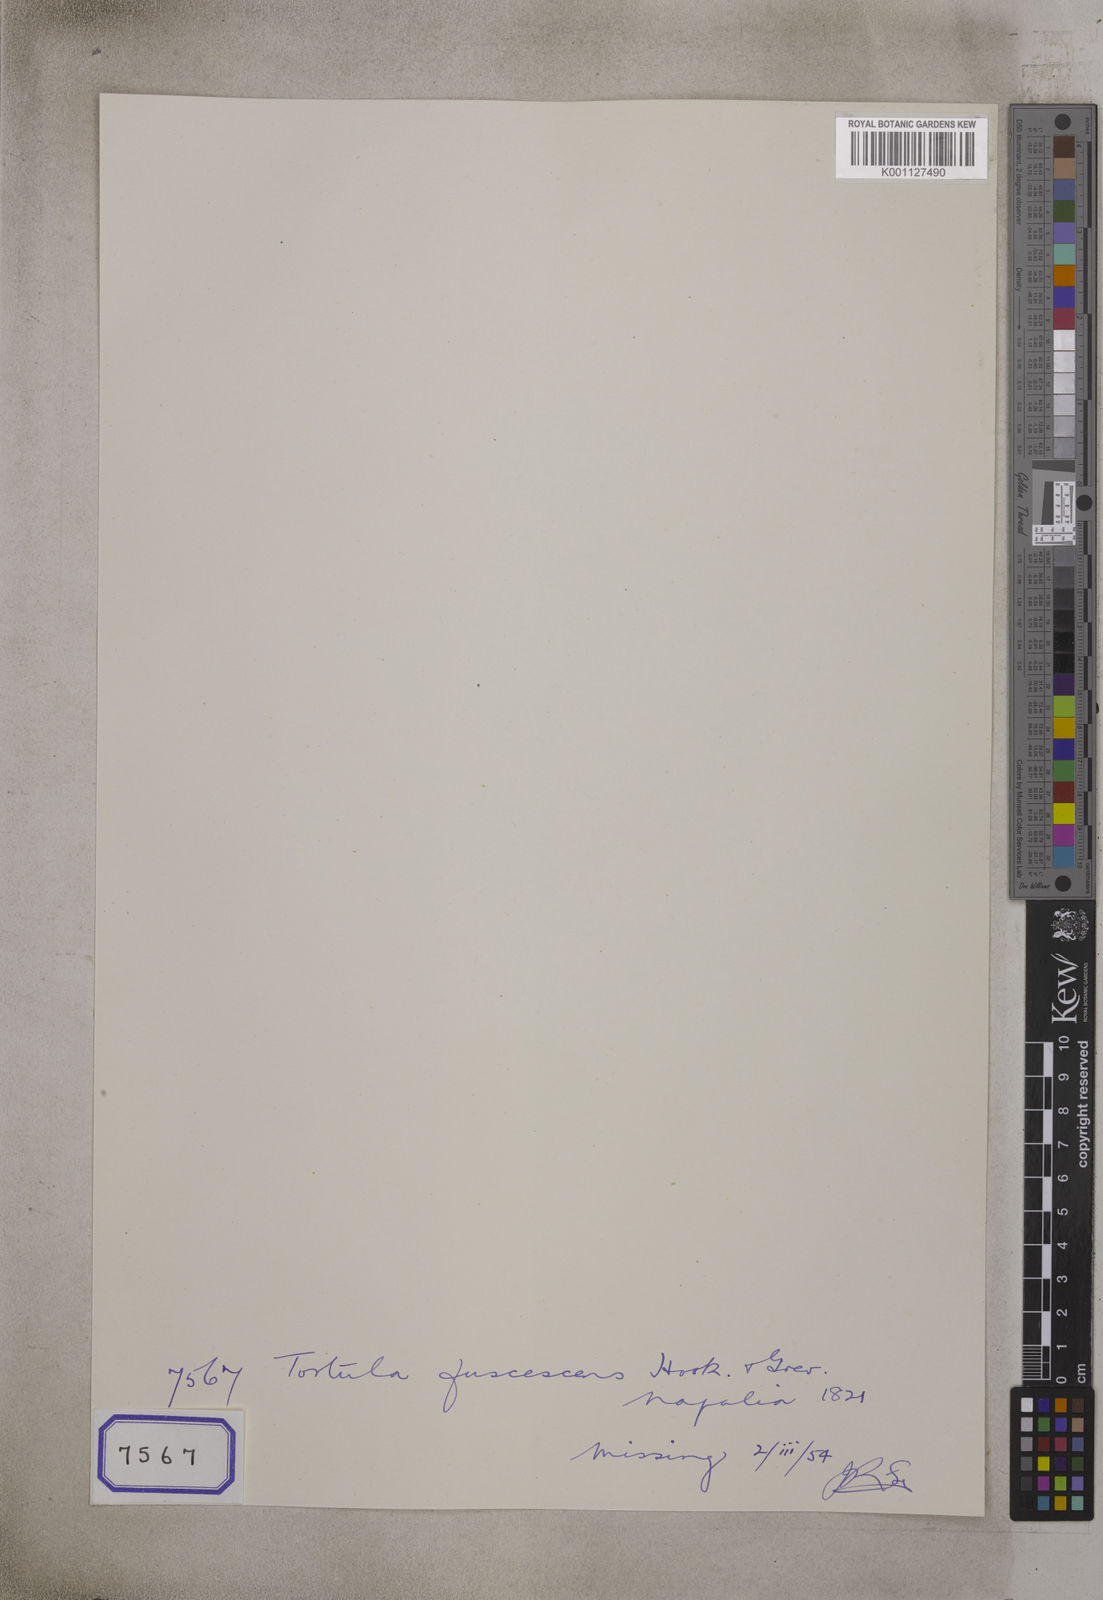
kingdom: Plantae
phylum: Bryophyta
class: Bryopsida
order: Hypnales
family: Meteoriaceae
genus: Tortula
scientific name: Tortula
